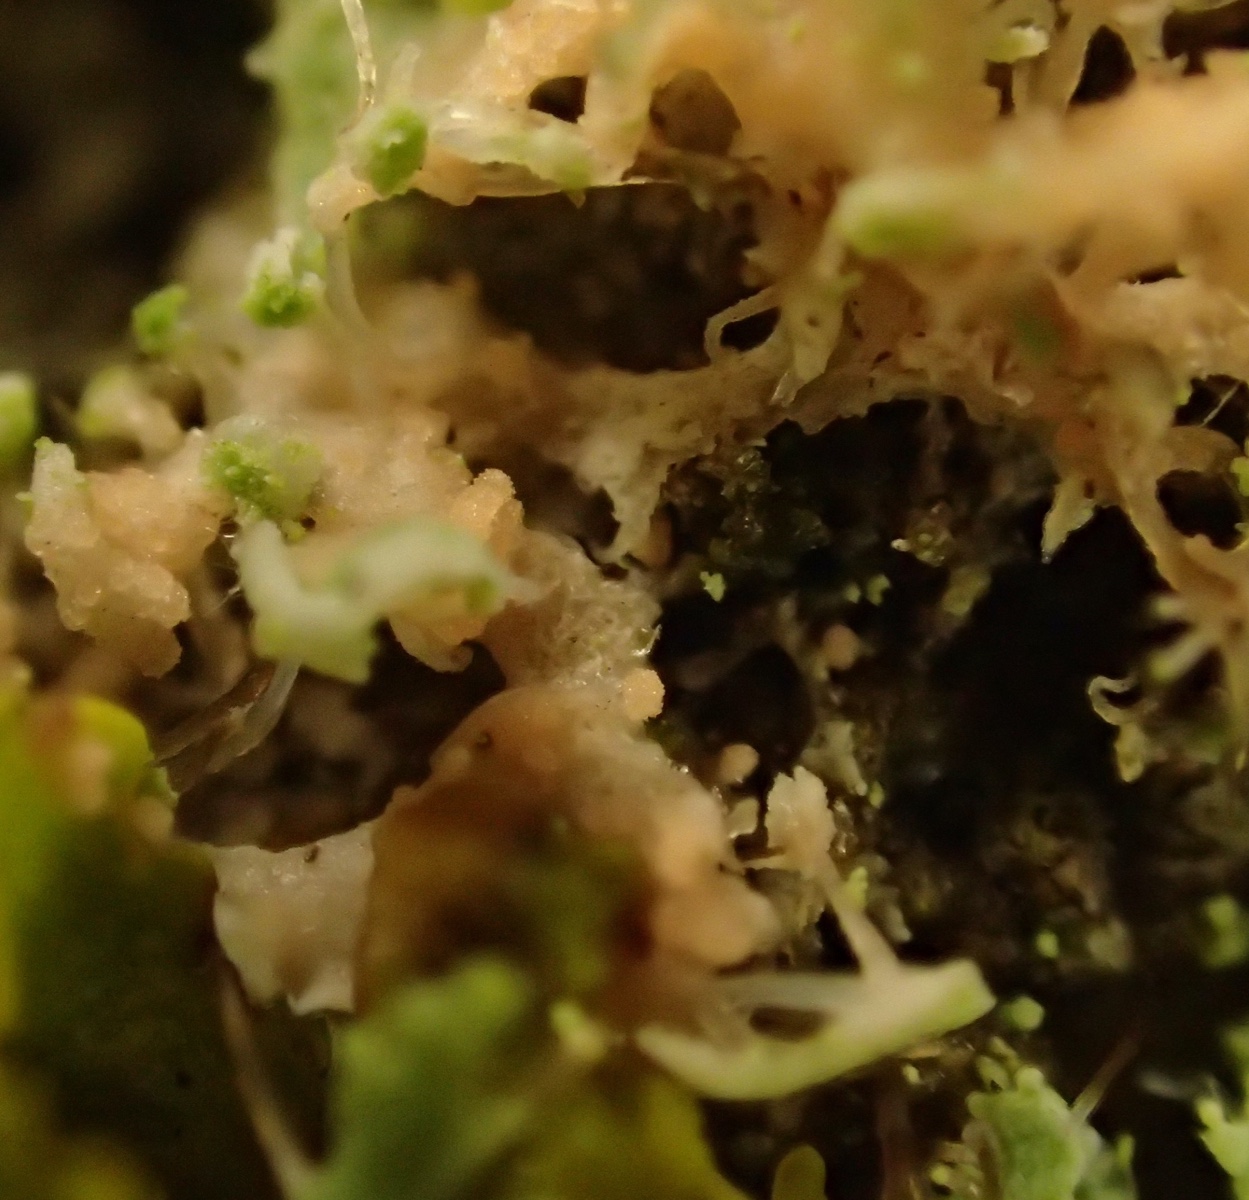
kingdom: Fungi
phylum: Basidiomycota
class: Agaricomycetes
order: Corticiales
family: Corticiaceae
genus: Erythricium
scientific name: Erythricium aurantiacum
